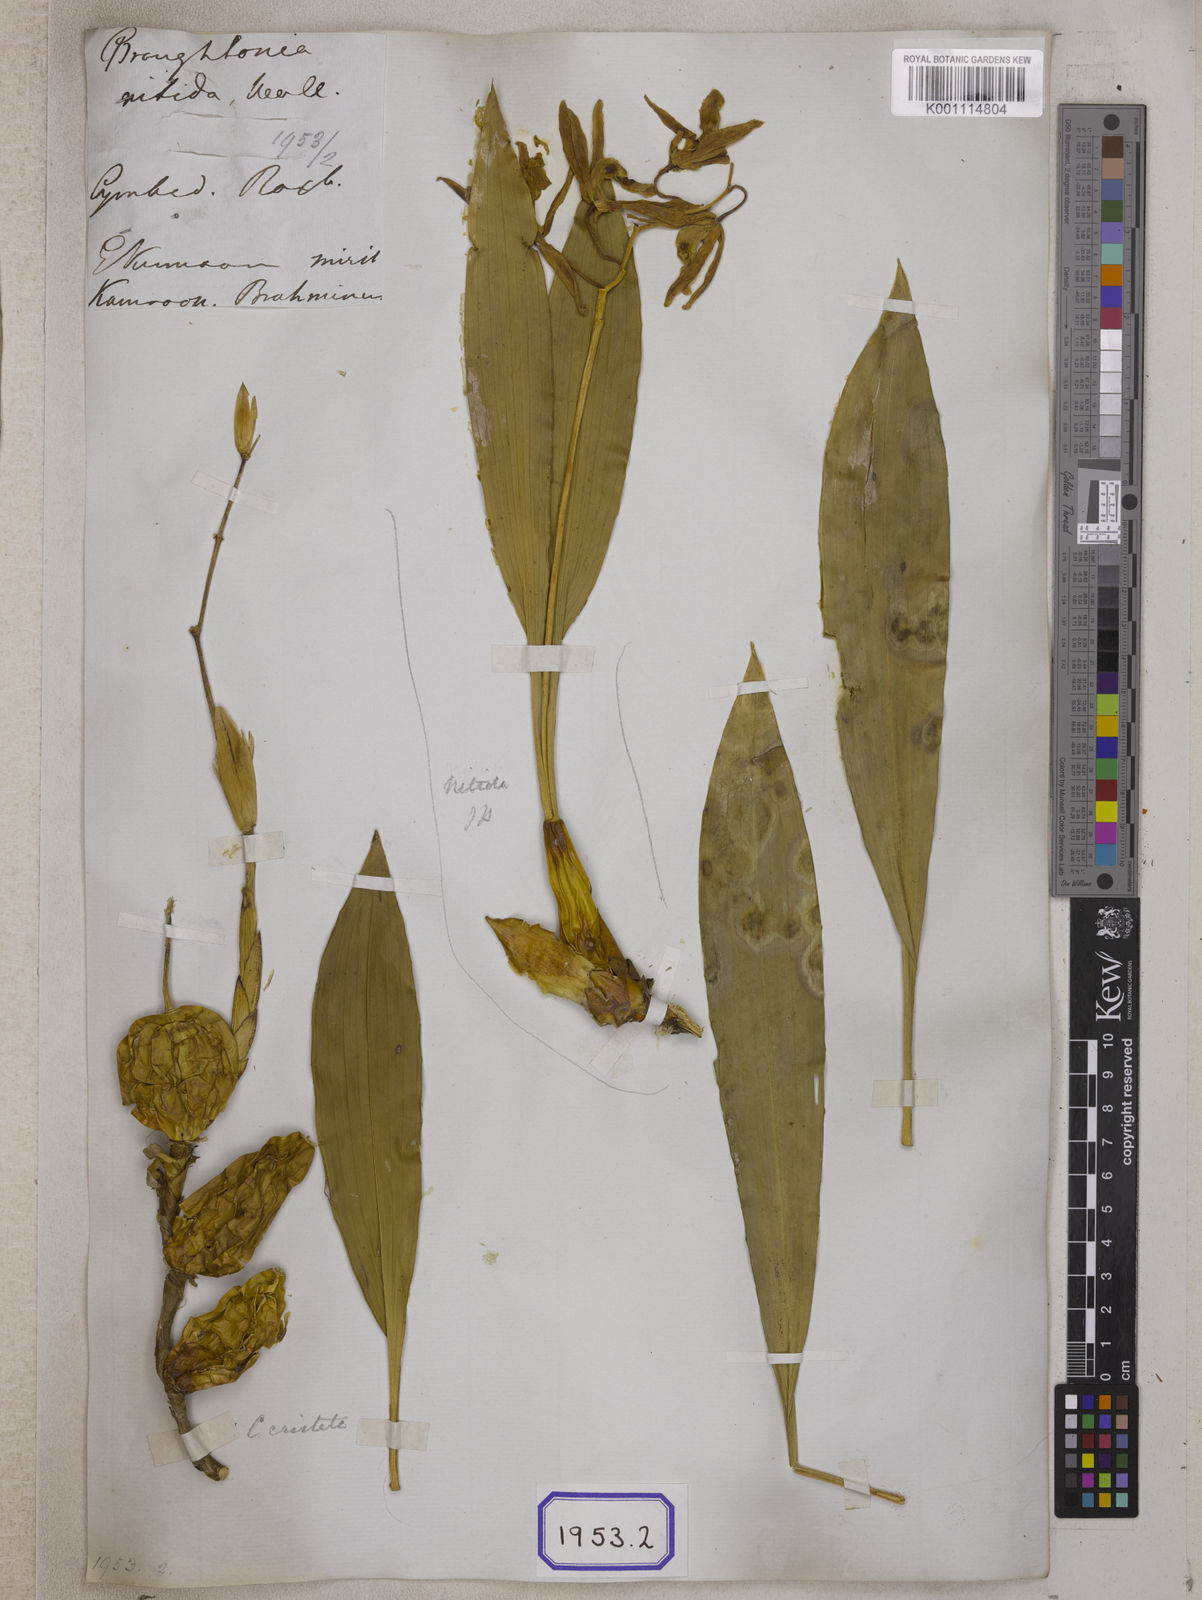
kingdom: Plantae
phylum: Tracheophyta
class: Liliopsida
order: Asparagales
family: Orchidaceae
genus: Coelogyne
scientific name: Coelogyne punctulata
